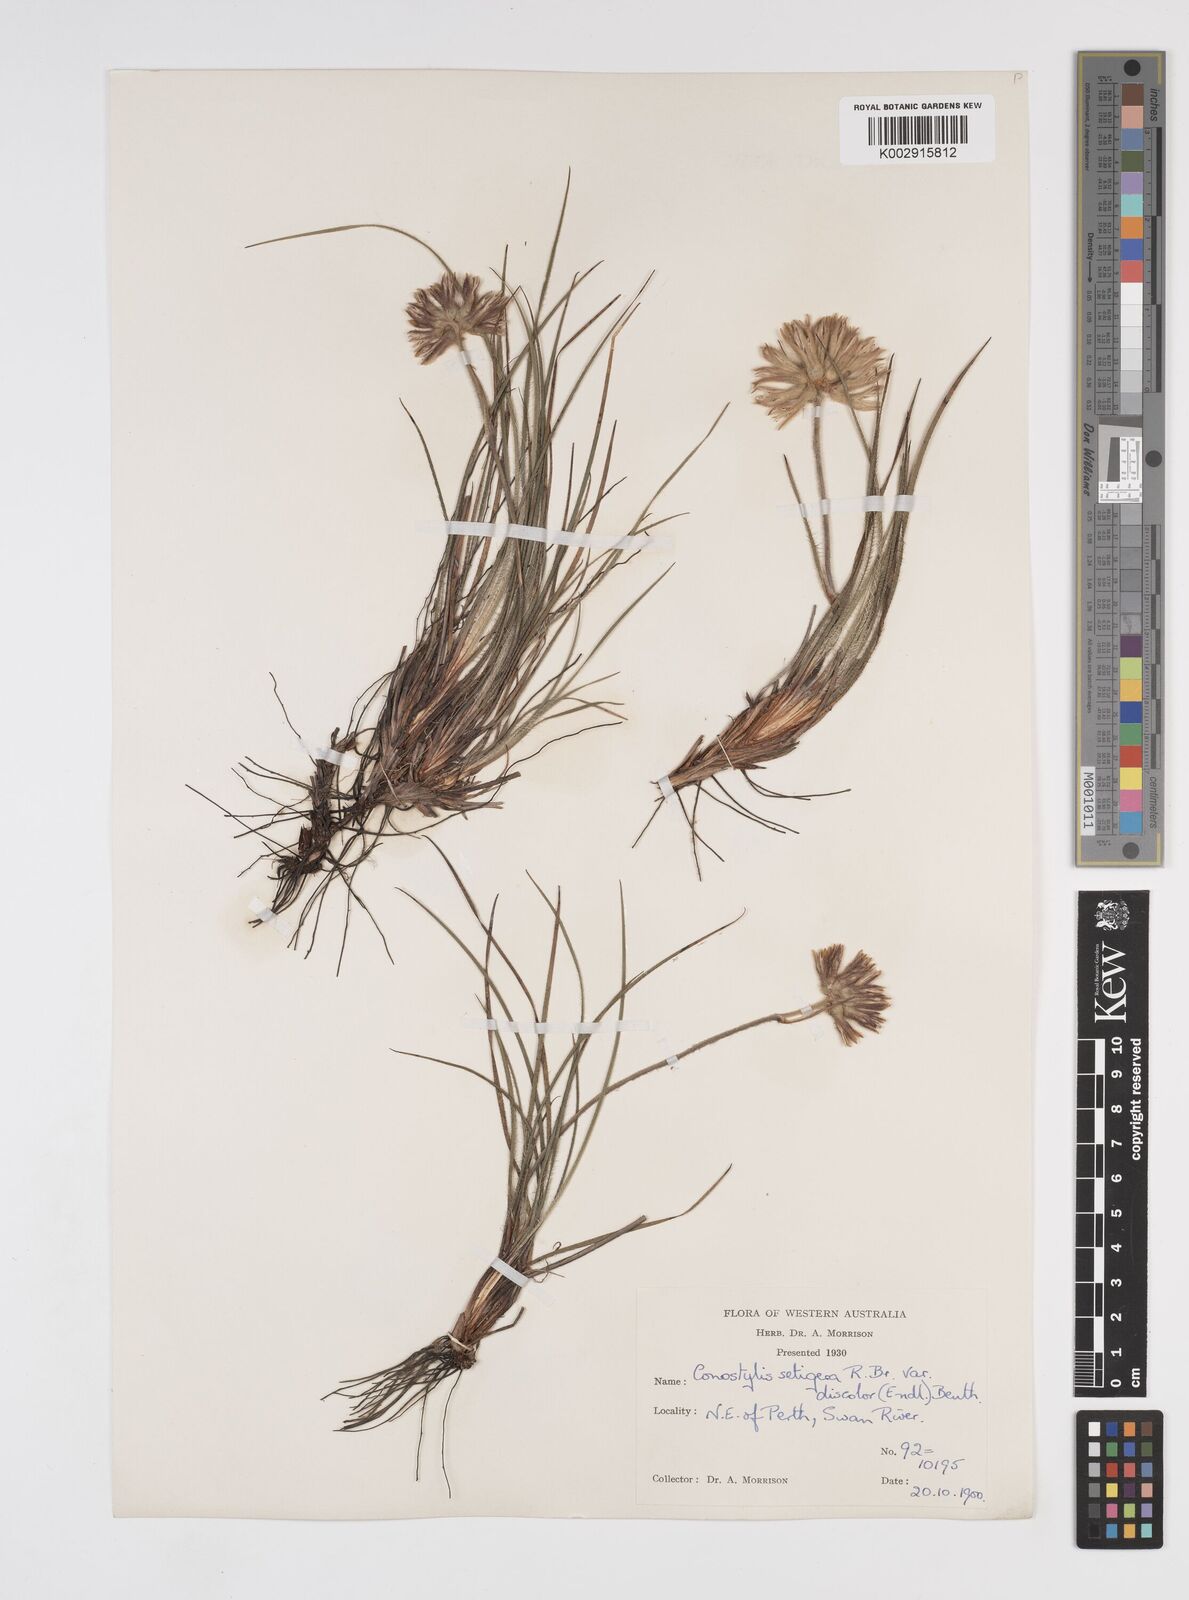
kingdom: Plantae
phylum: Tracheophyta
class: Liliopsida
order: Commelinales
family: Haemodoraceae
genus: Conostylis
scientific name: Conostylis setigera
